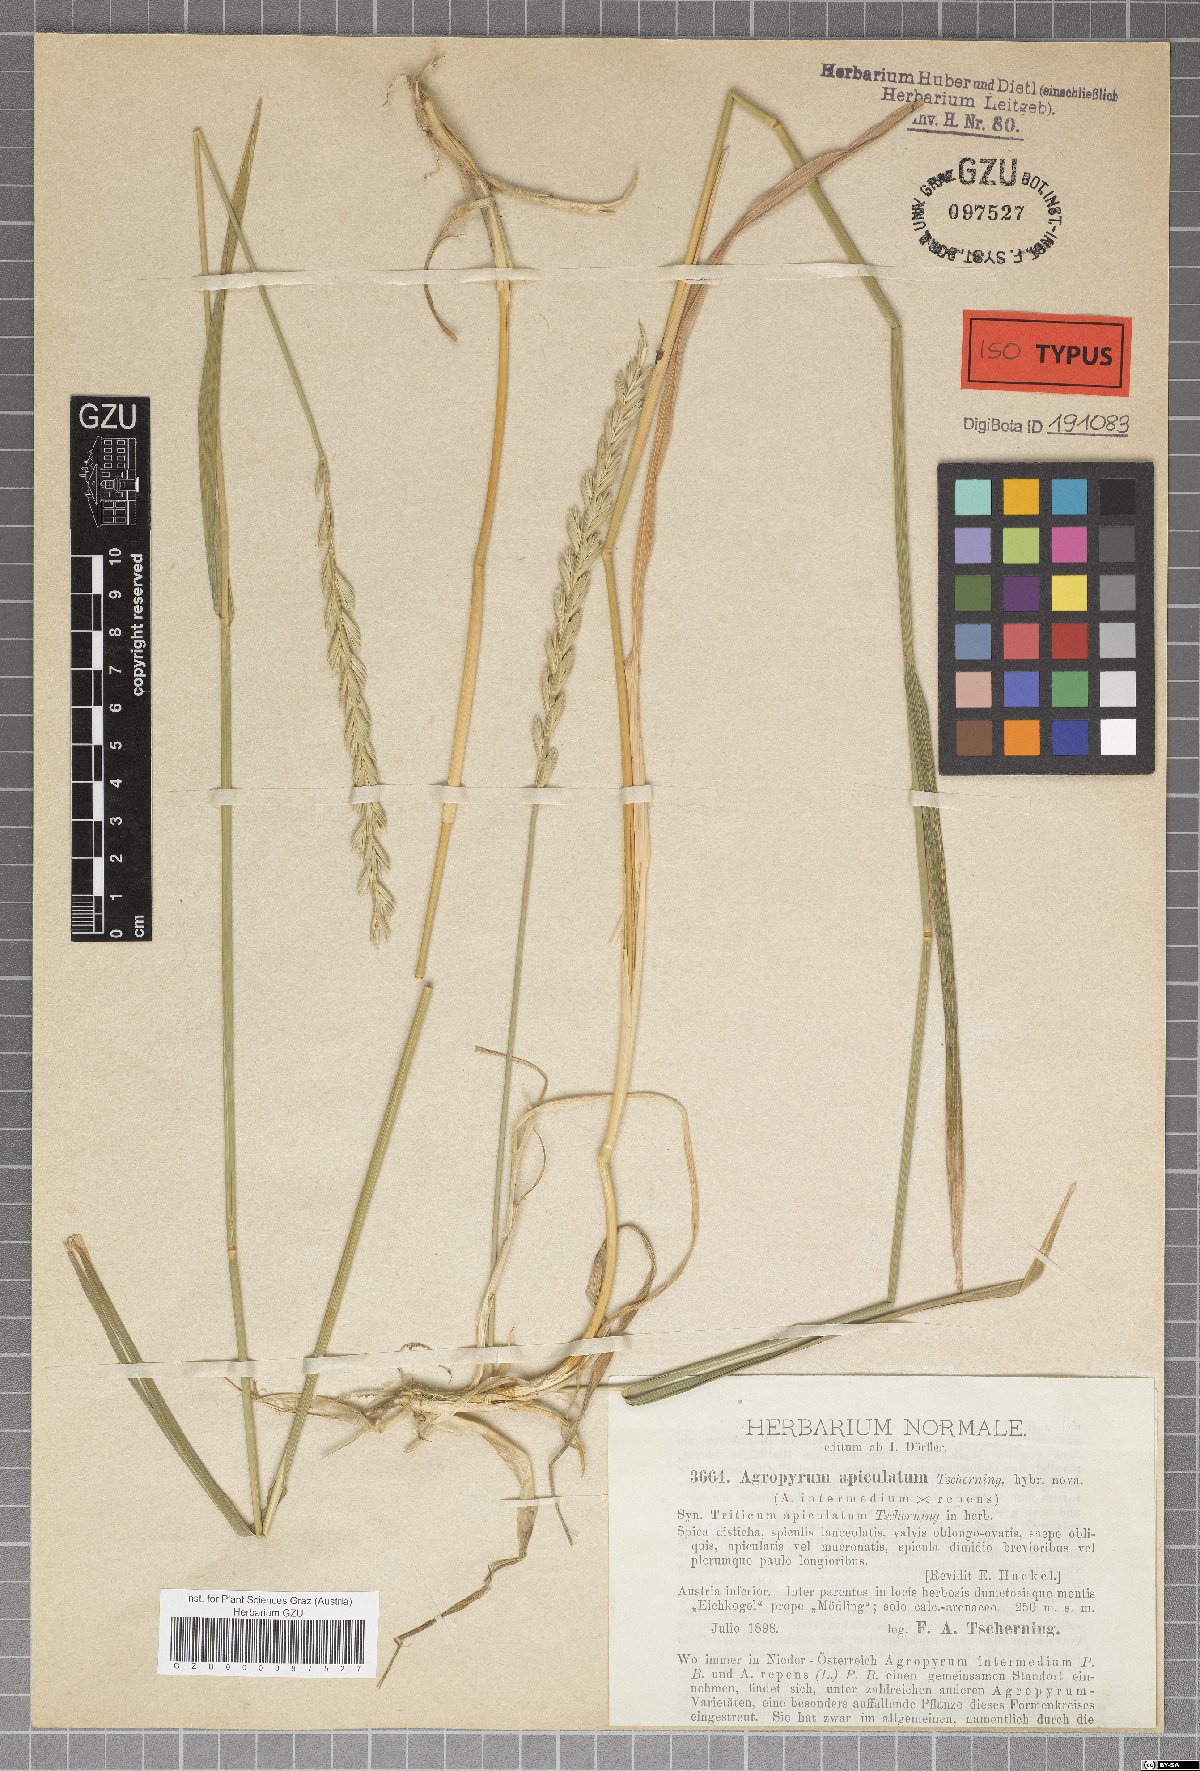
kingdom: Plantae
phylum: Tracheophyta
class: Liliopsida
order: Poales
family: Poaceae
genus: Elymus
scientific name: Elymus apiculatus
